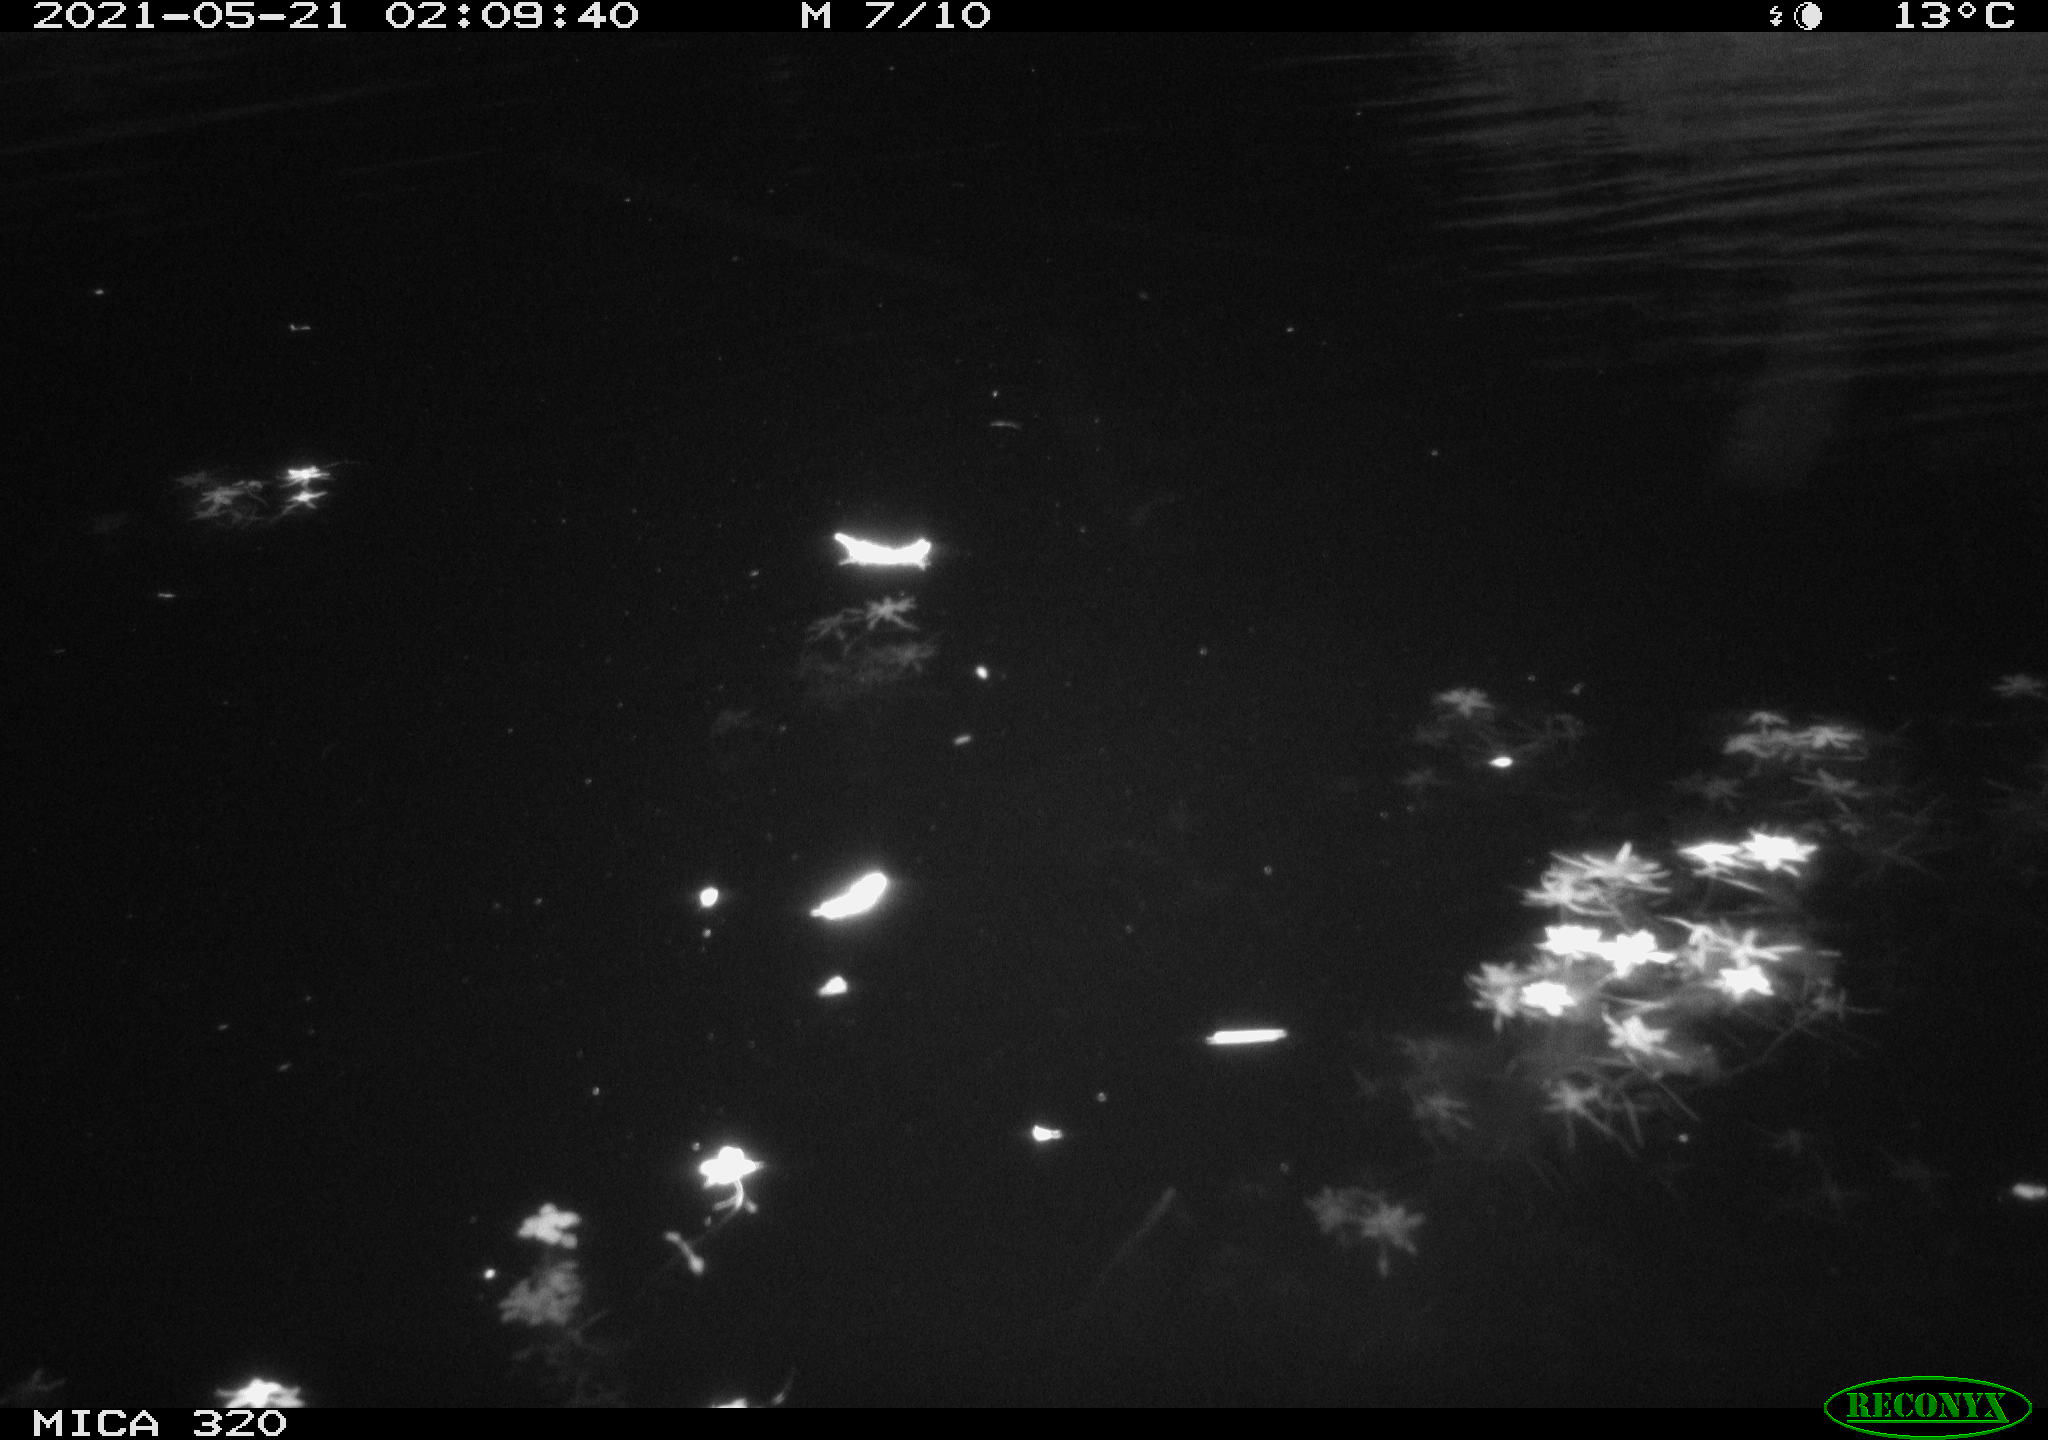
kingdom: Animalia
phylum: Chordata
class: Mammalia
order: Rodentia
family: Muridae
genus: Rattus
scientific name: Rattus norvegicus
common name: Brown rat
